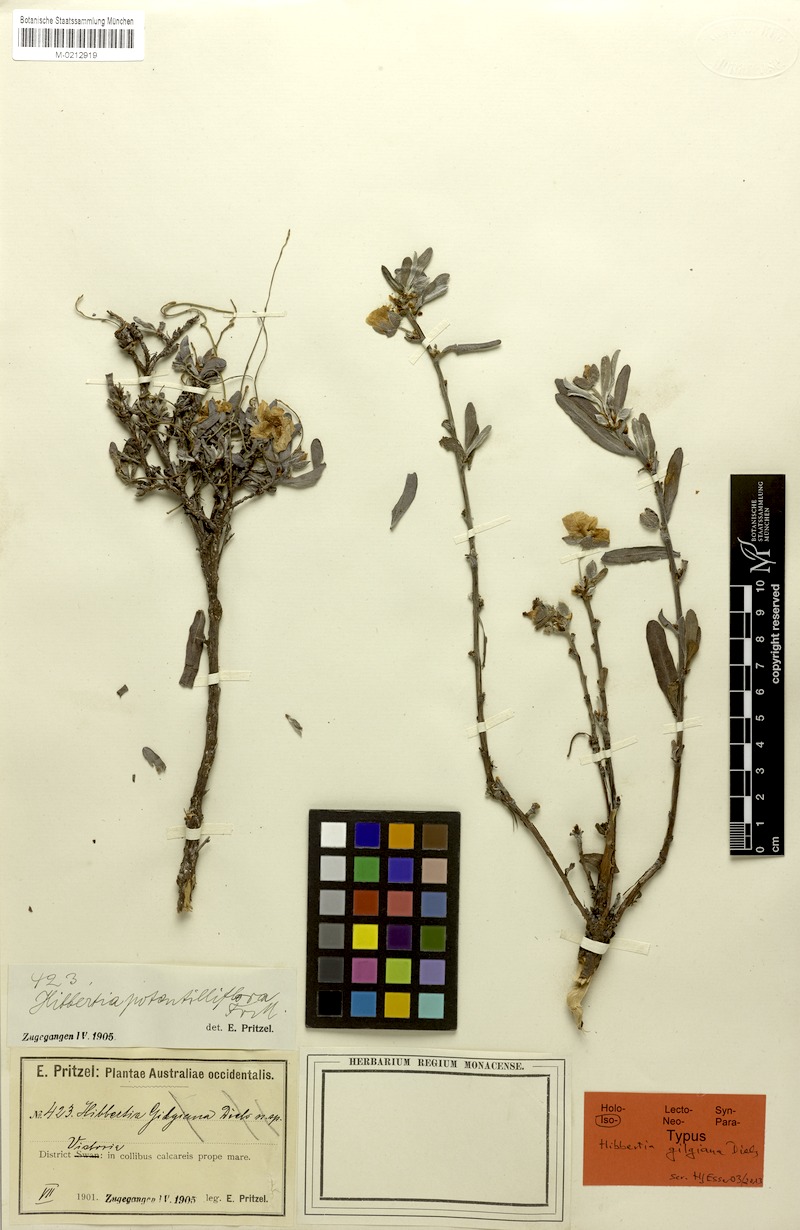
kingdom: Plantae
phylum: Tracheophyta
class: Magnoliopsida
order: Dilleniales
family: Dilleniaceae
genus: Hibbertia
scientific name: Hibbertia potentilliflora
